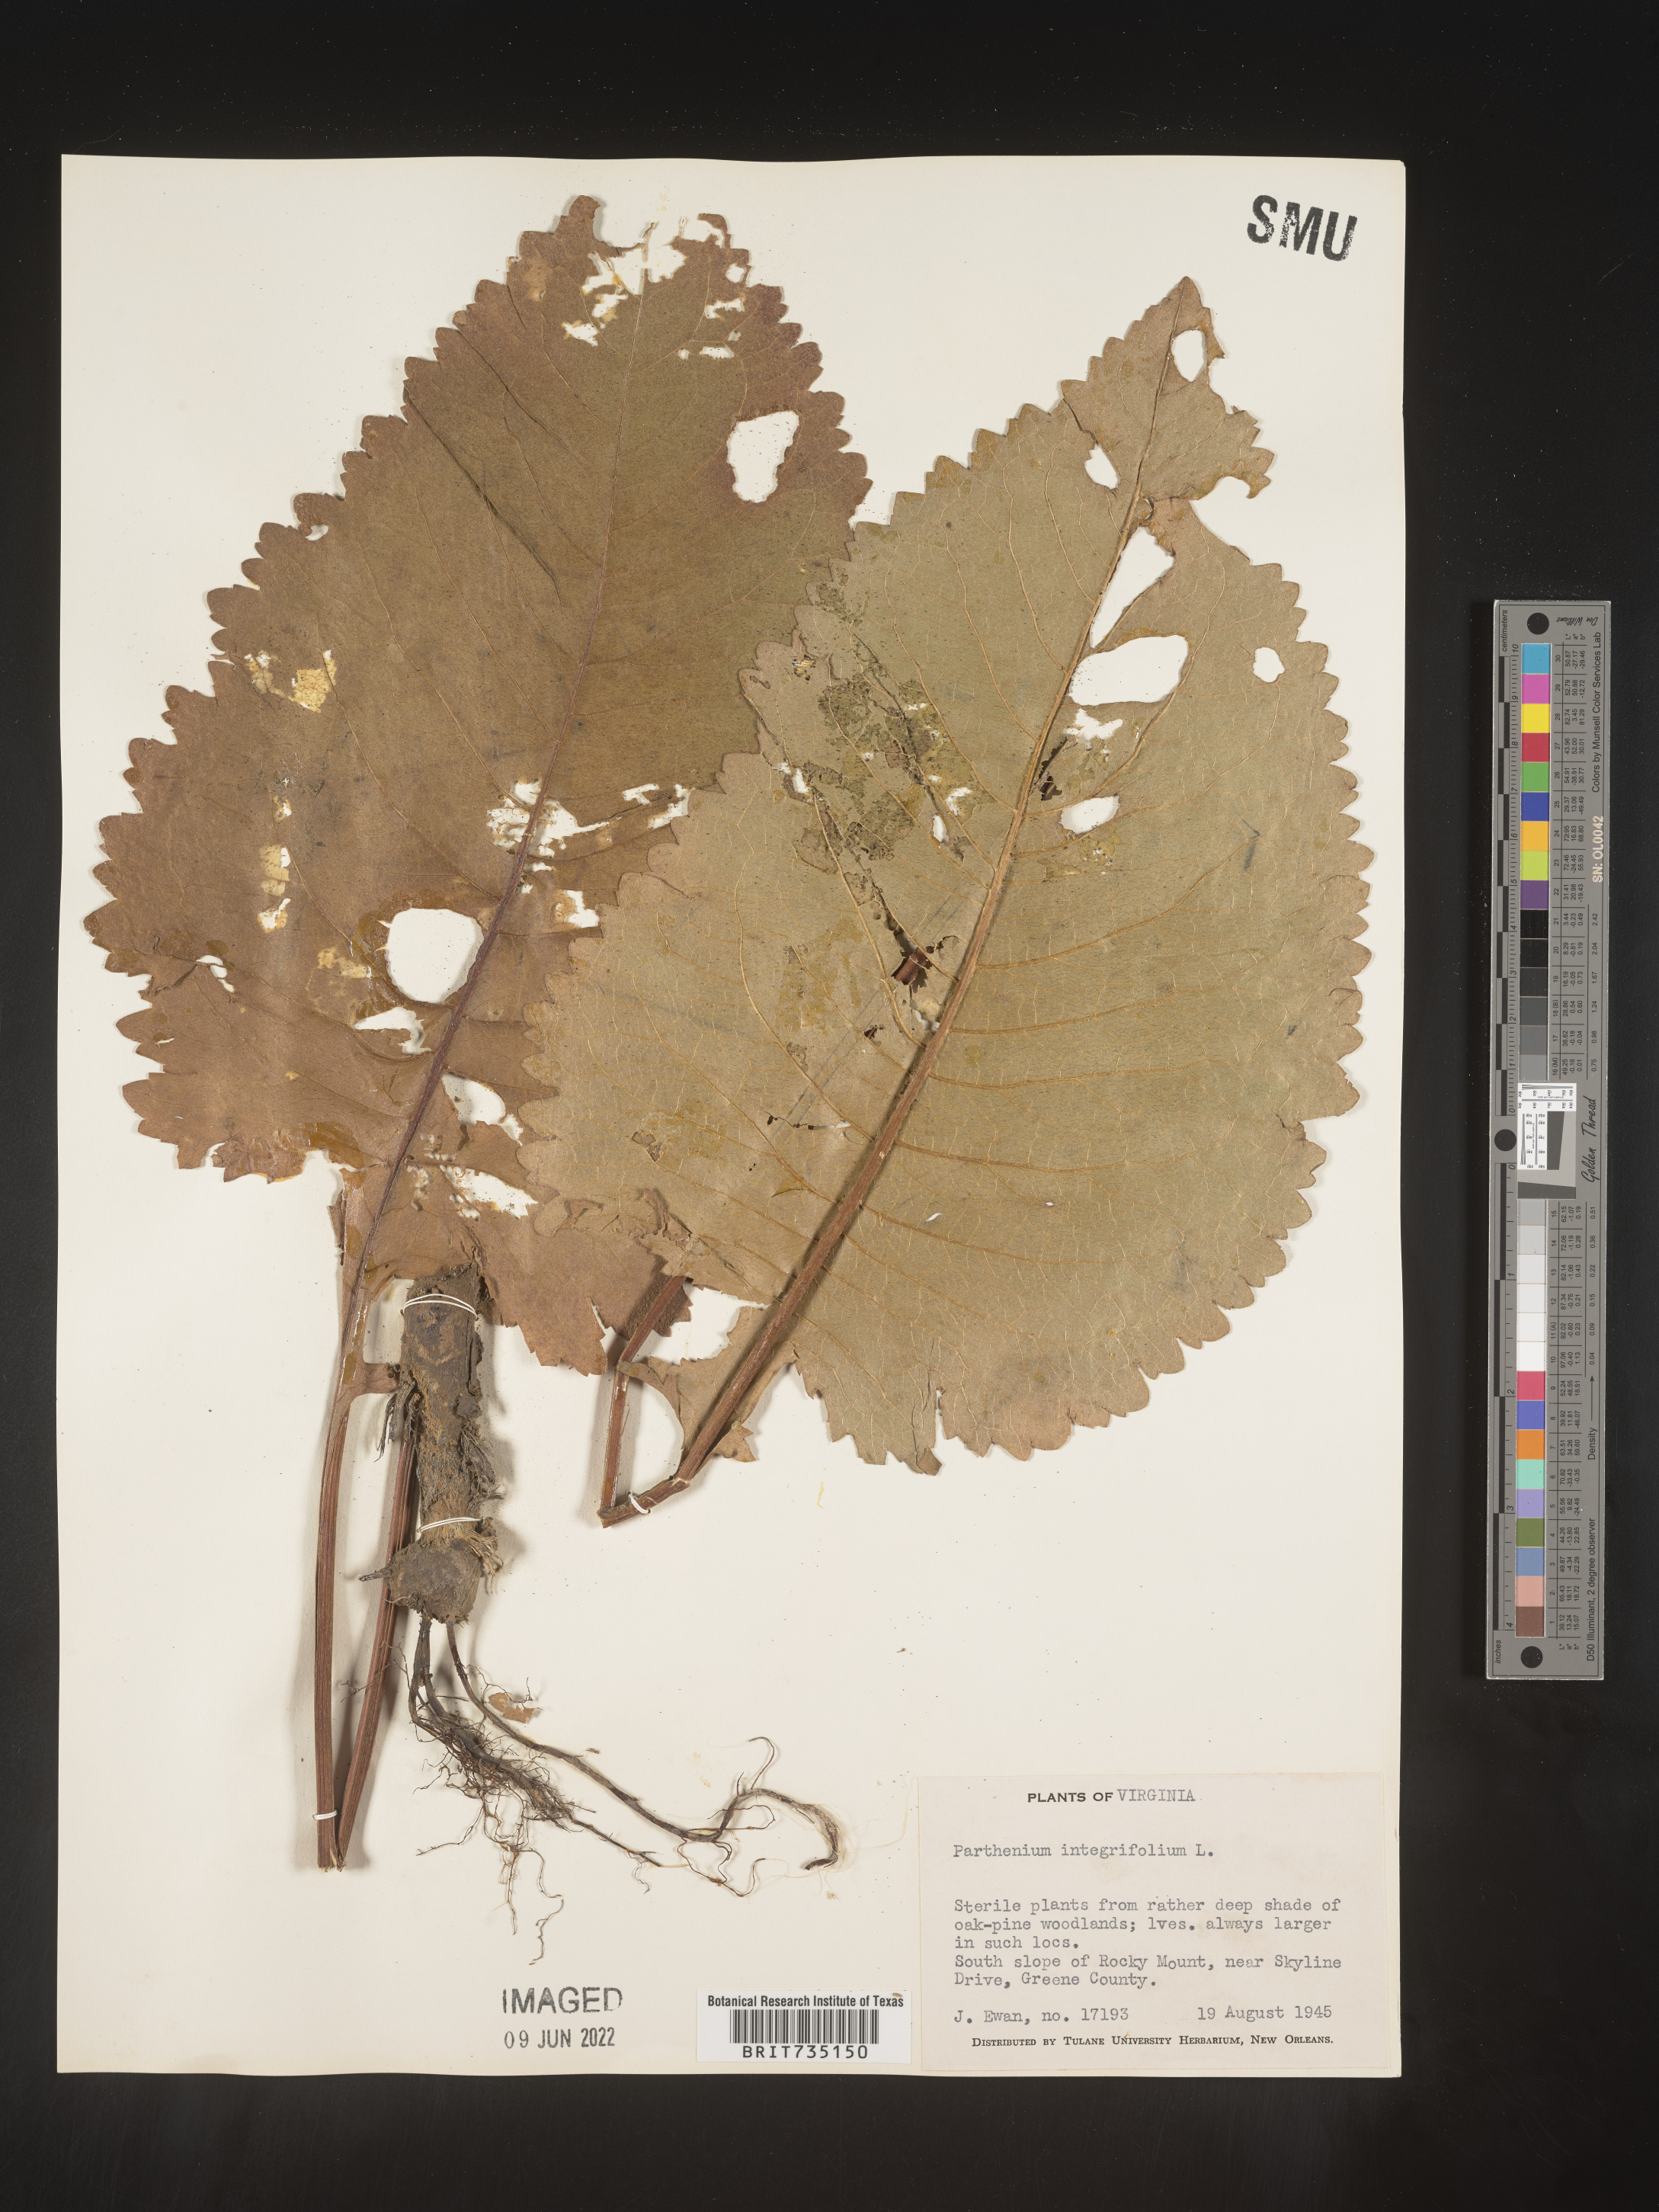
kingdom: Plantae
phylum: Tracheophyta
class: Magnoliopsida
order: Asterales
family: Asteraceae
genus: Parthenium
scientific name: Parthenium integrifolium
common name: American feverfew
